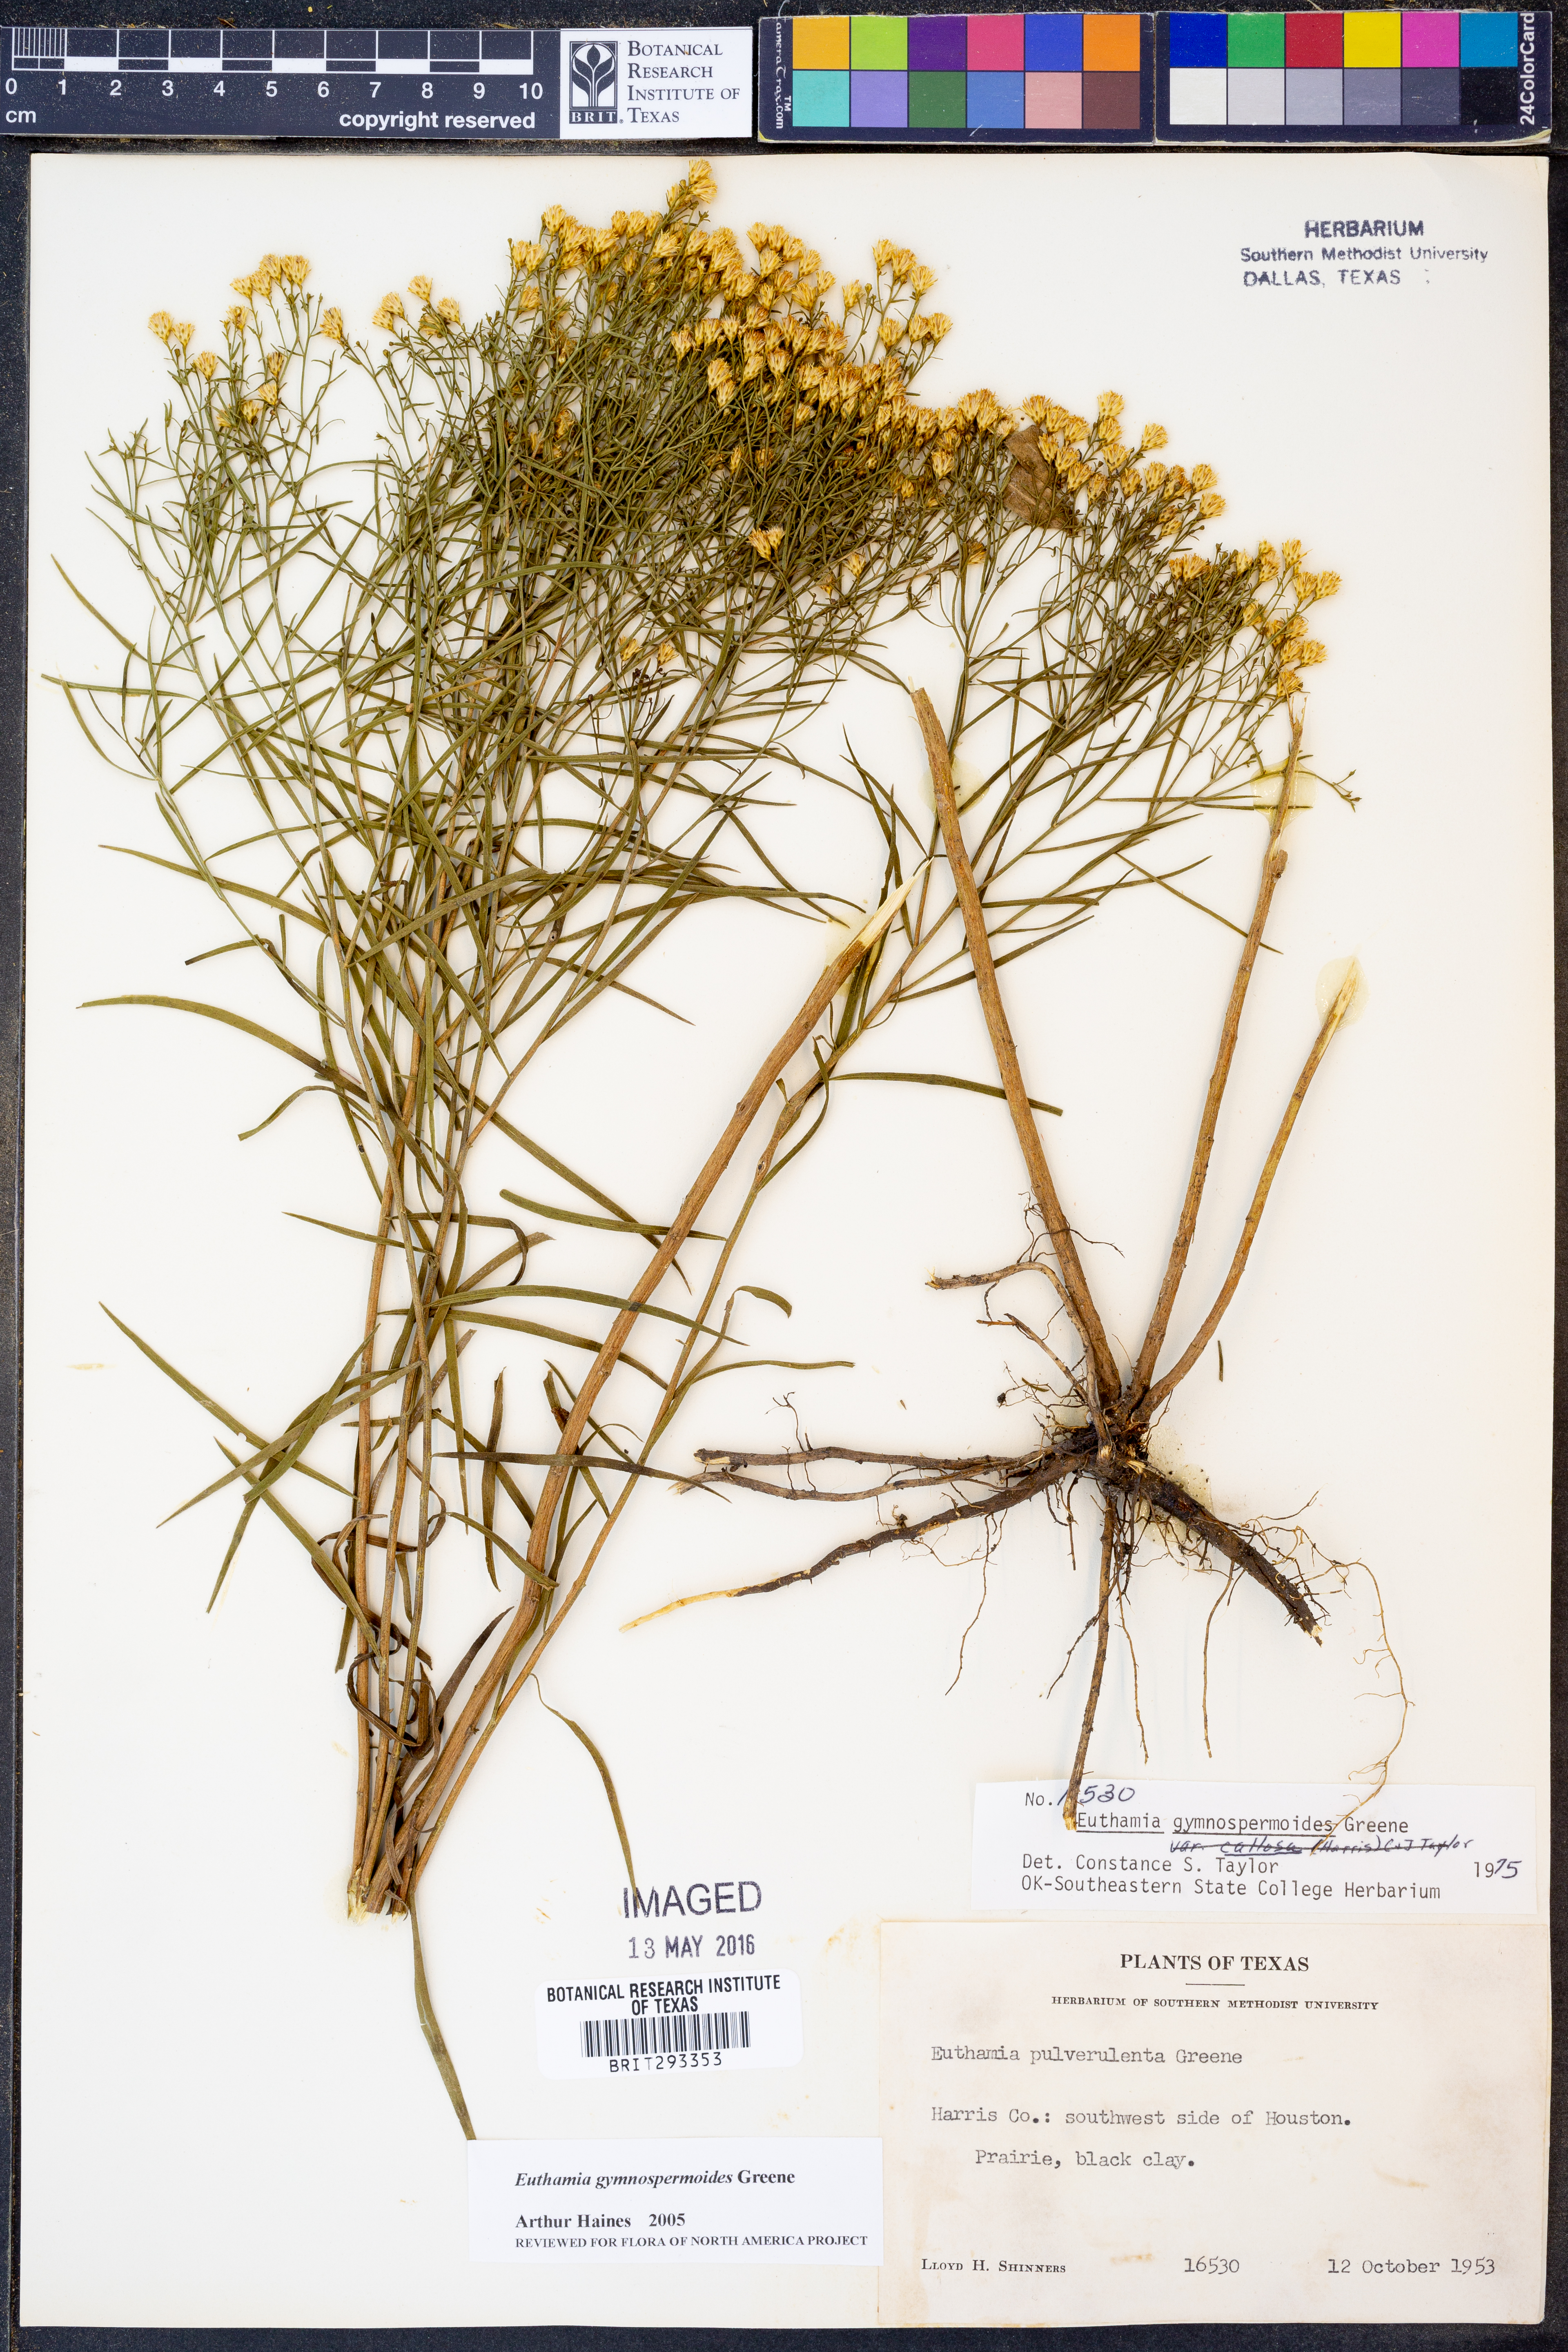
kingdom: Plantae
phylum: Tracheophyta
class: Magnoliopsida
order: Asterales
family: Asteraceae
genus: Euthamia
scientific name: Euthamia gymnospermoides
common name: Great plains goldentop
